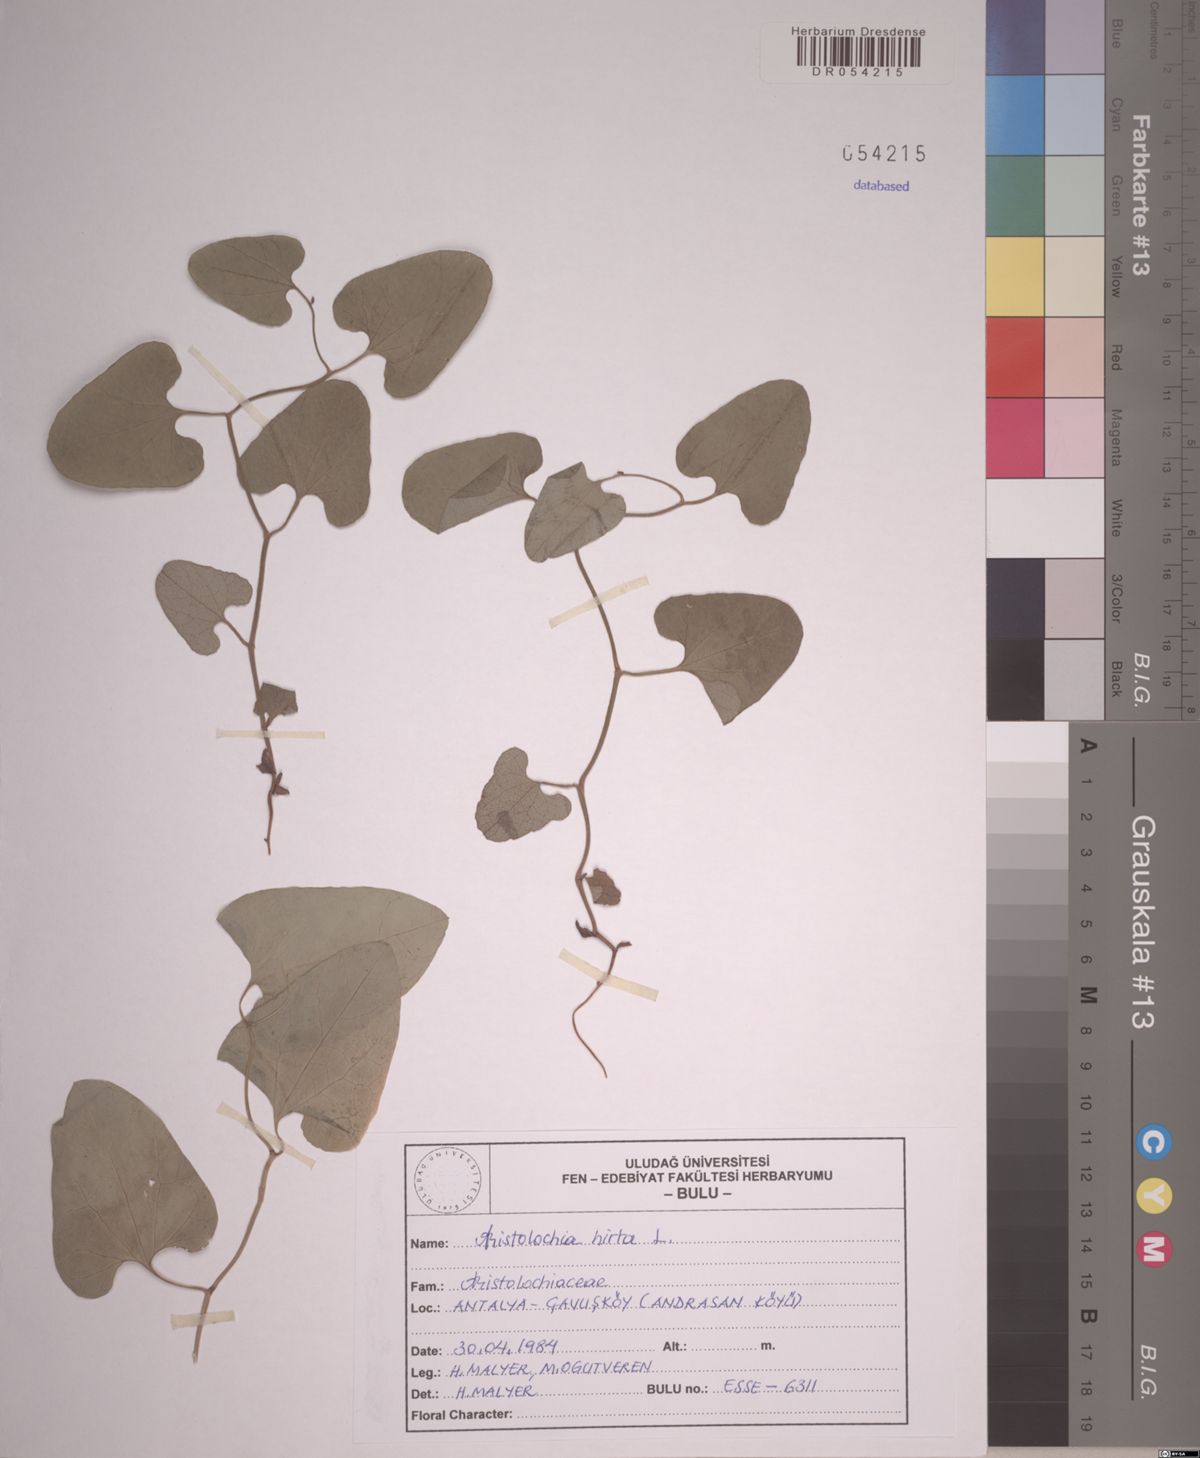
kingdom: Plantae
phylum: Tracheophyta
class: Magnoliopsida
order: Piperales
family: Aristolochiaceae
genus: Aristolochia
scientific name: Aristolochia hirta
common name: Breckland birthwort
